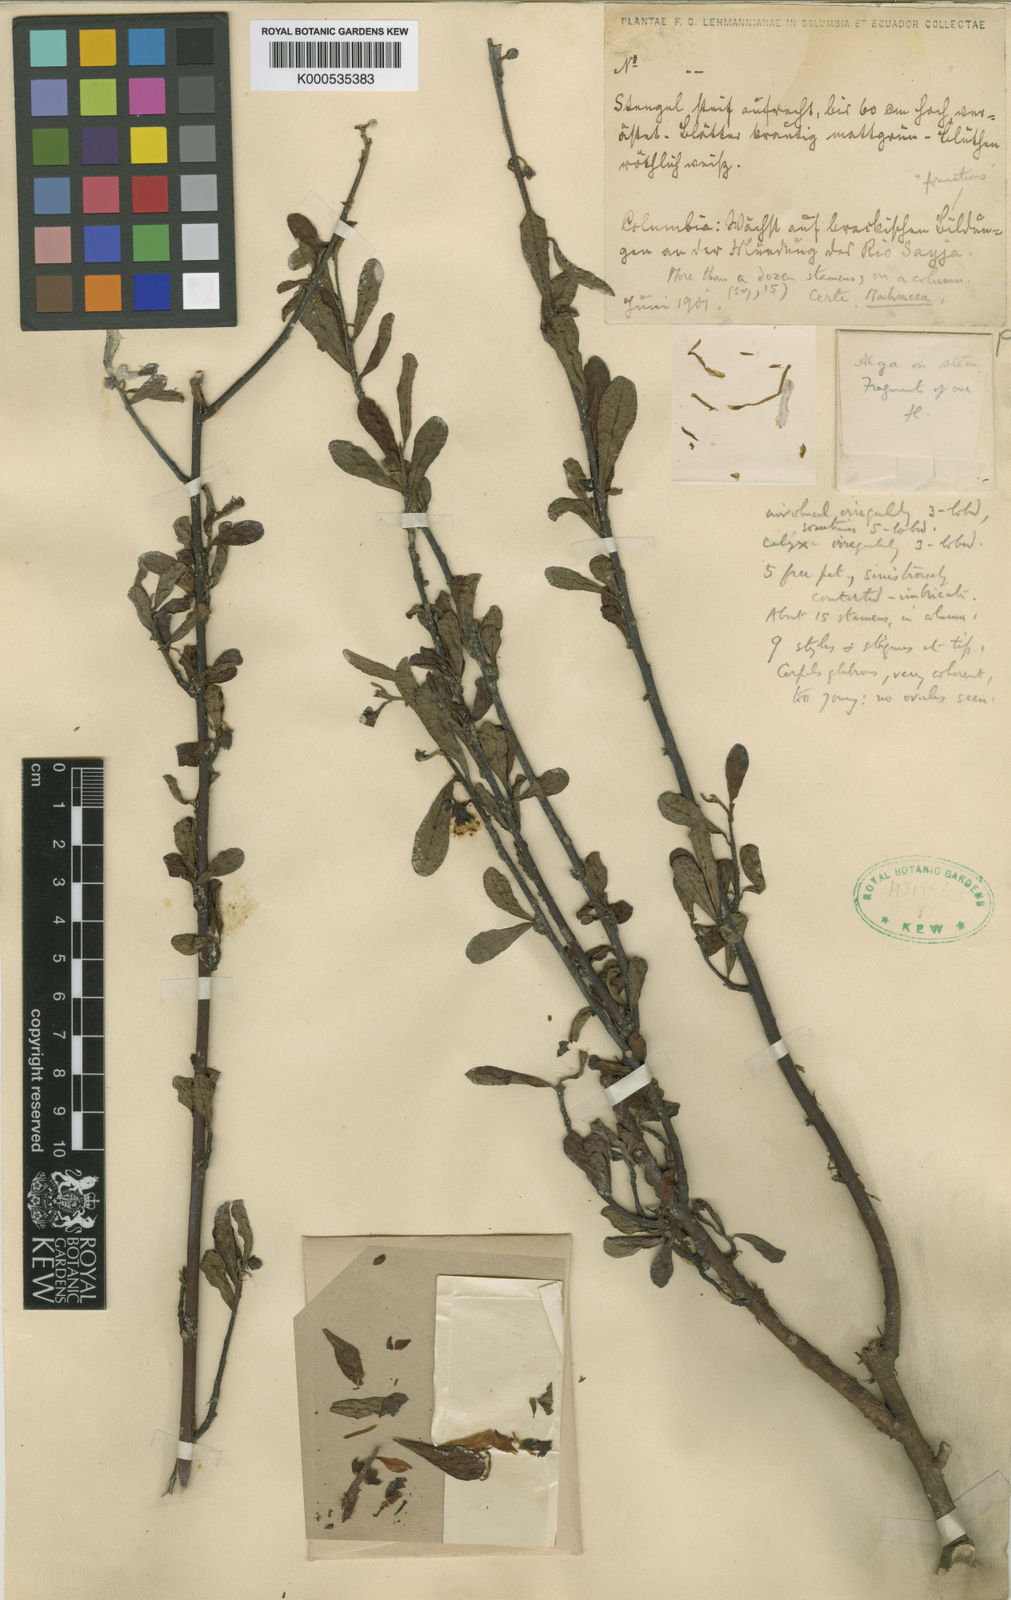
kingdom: Plantae
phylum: Tracheophyta
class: Magnoliopsida
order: Malvales
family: Malvaceae
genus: Pavonia
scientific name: Pavonia kearneyi
